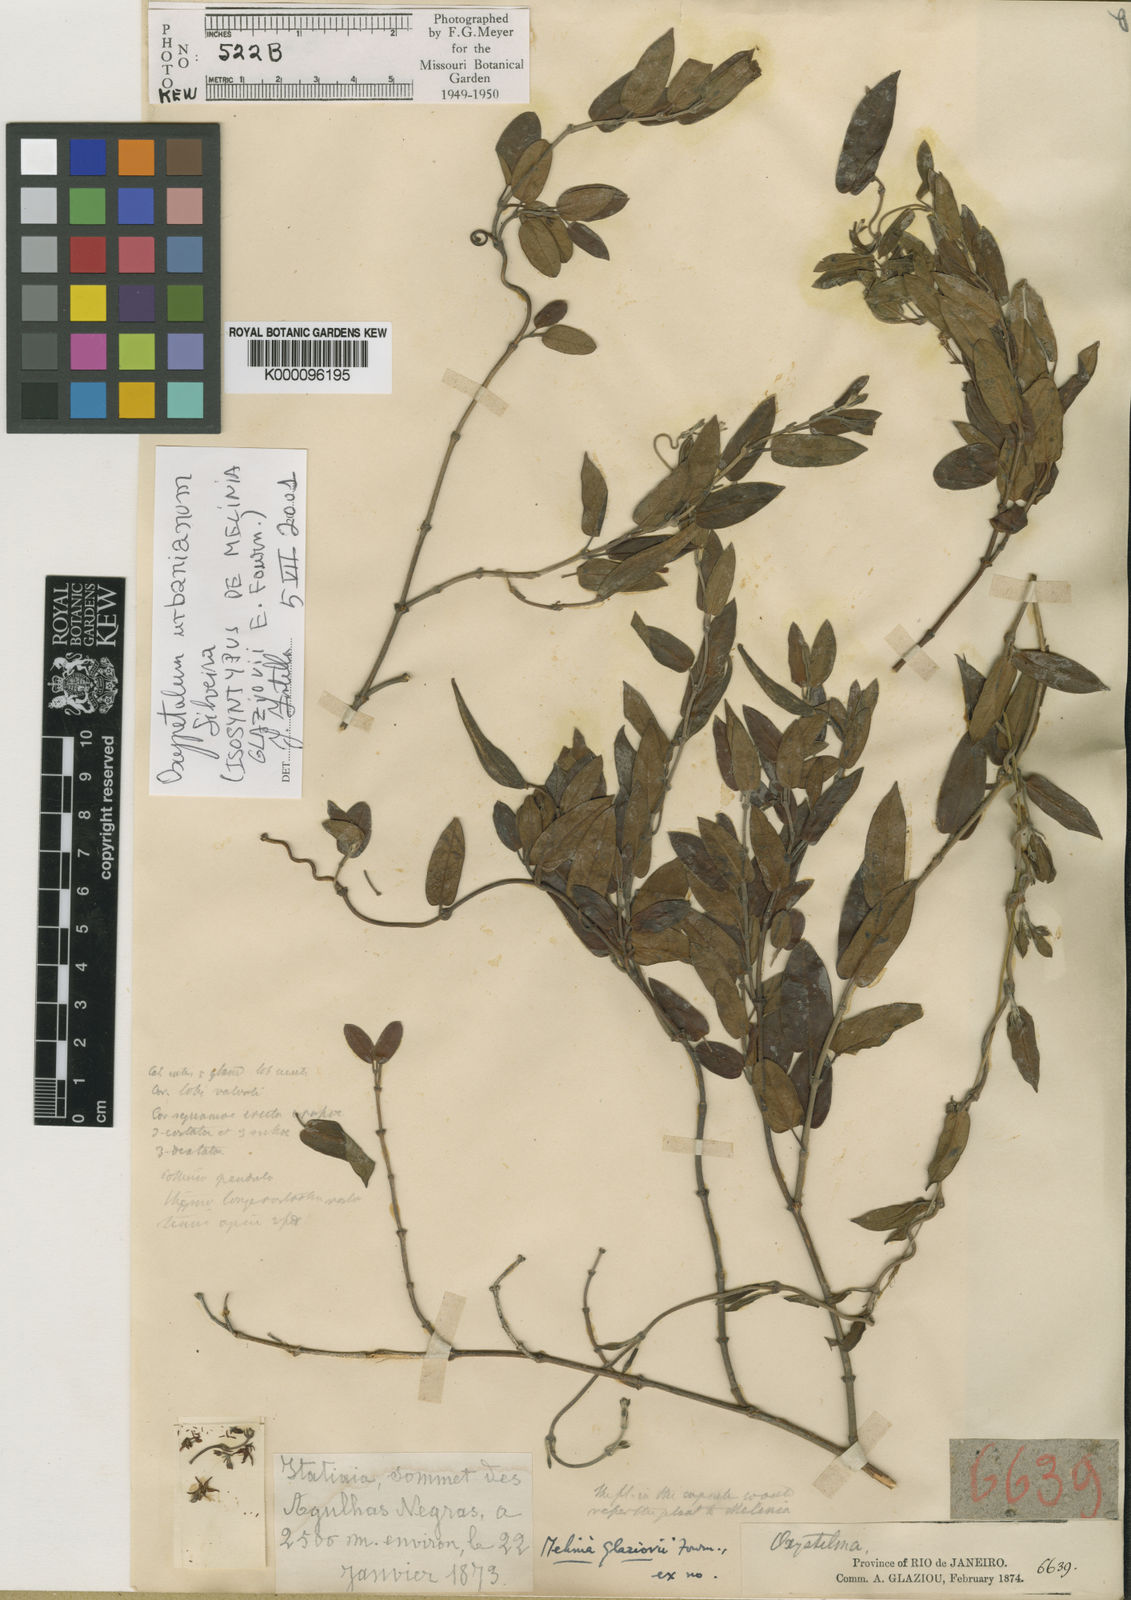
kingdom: Plantae
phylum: Tracheophyta
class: Magnoliopsida
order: Gentianales
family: Apocynaceae
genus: Oxypetalum
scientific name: Oxypetalum glaziovii
